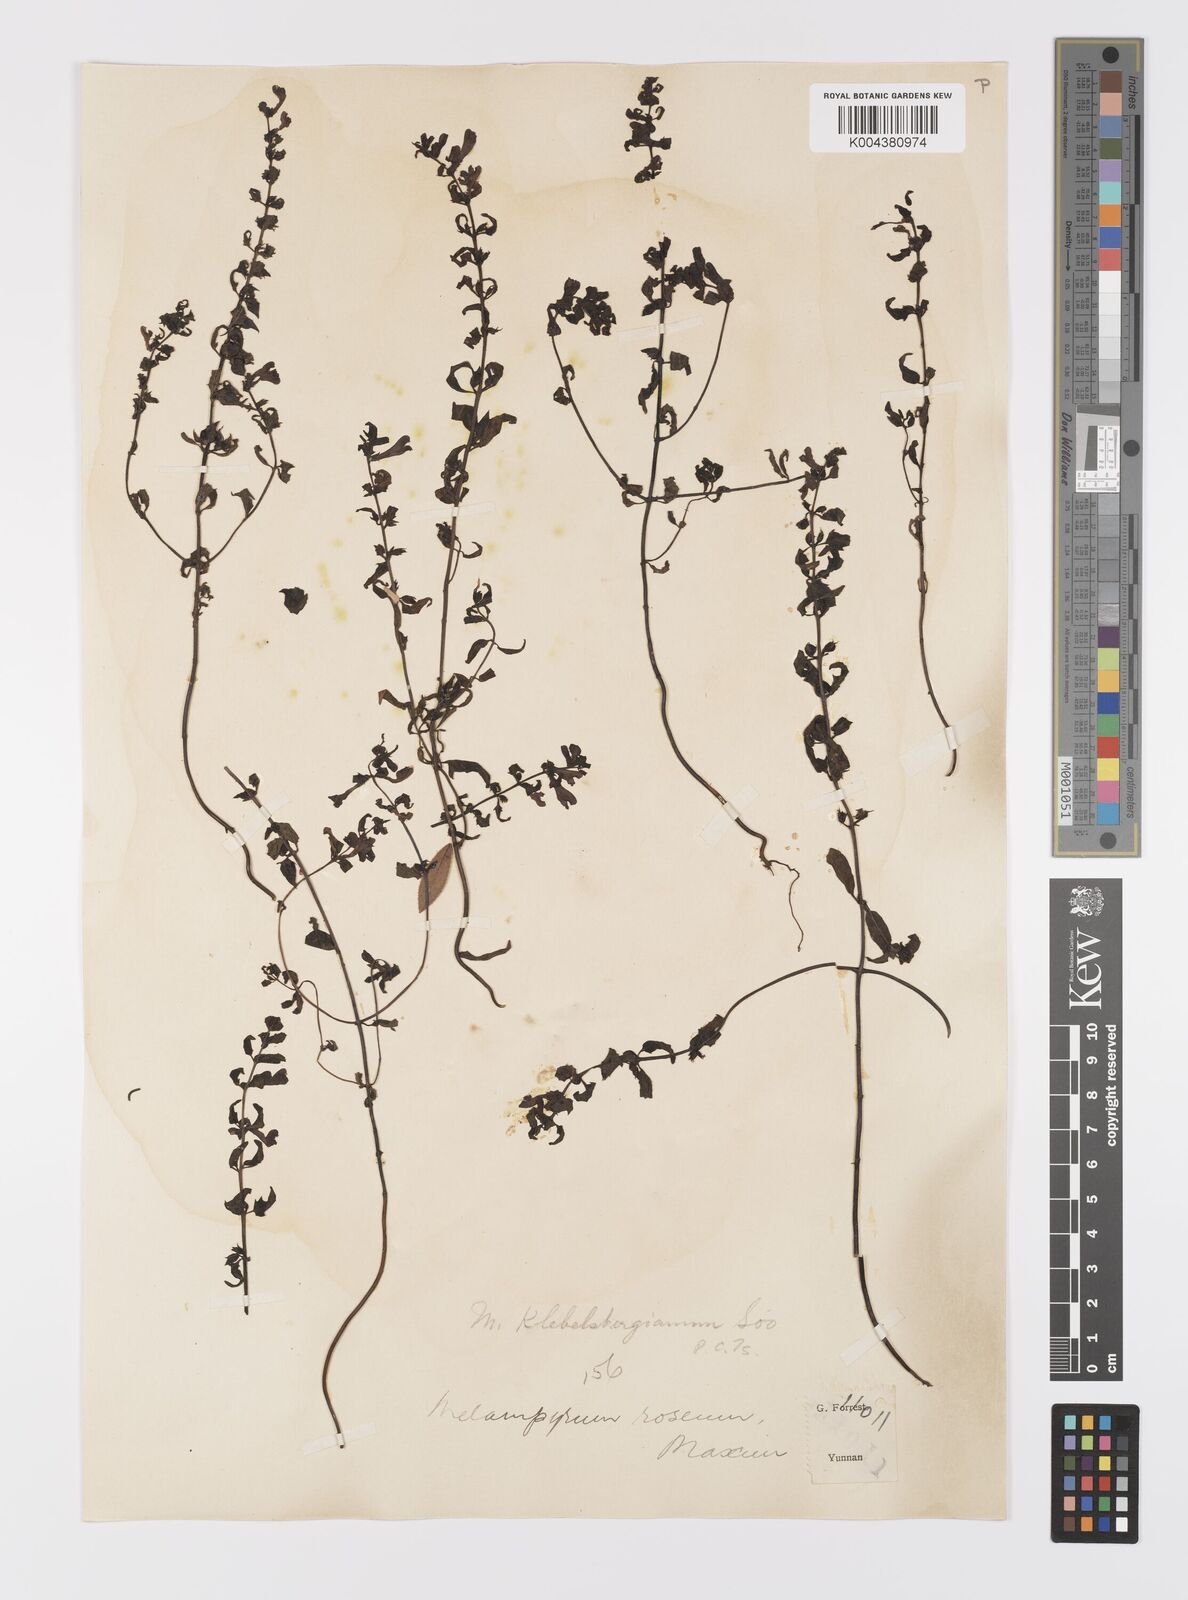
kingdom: Plantae
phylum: Tracheophyta
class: Magnoliopsida
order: Lamiales
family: Orobanchaceae
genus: Melampyrum
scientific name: Melampyrum chinense
